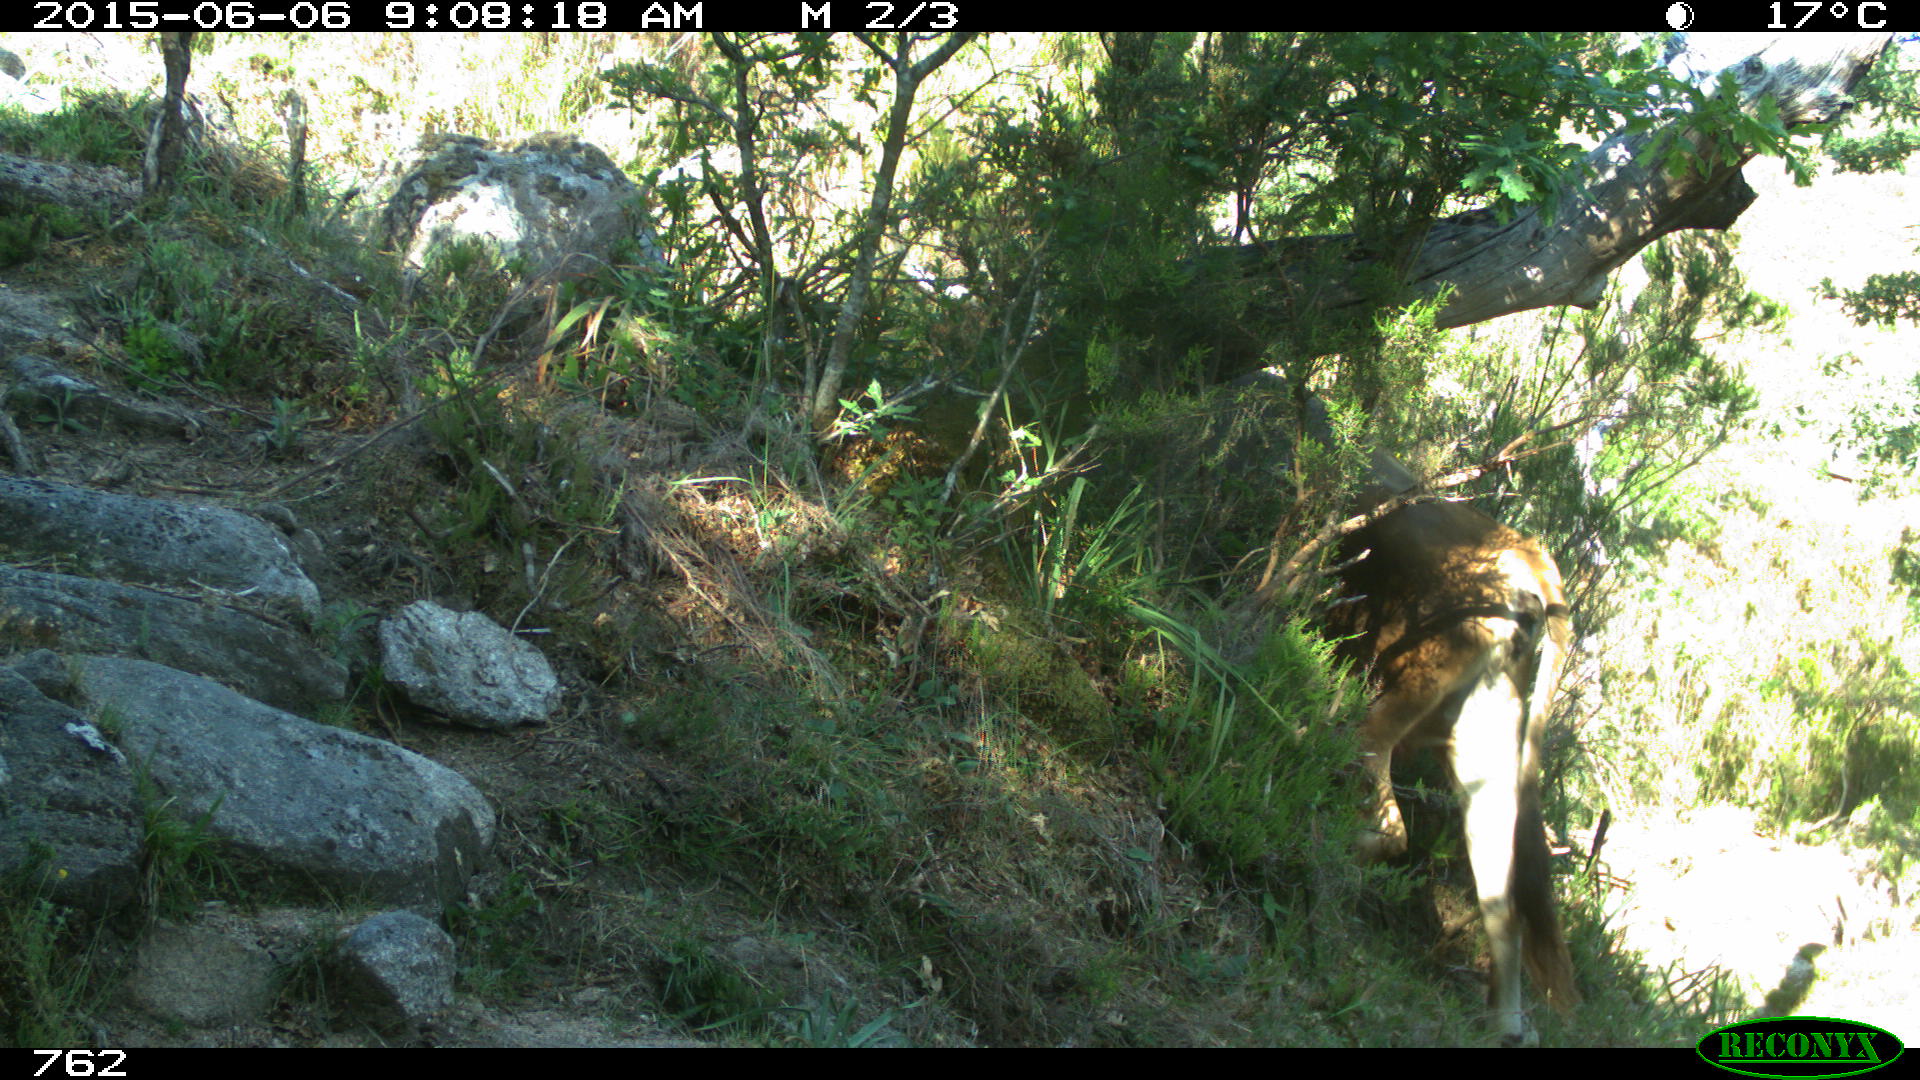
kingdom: Animalia
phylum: Chordata
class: Mammalia
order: Artiodactyla
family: Bovidae
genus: Bos
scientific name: Bos taurus
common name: Domesticated cattle
